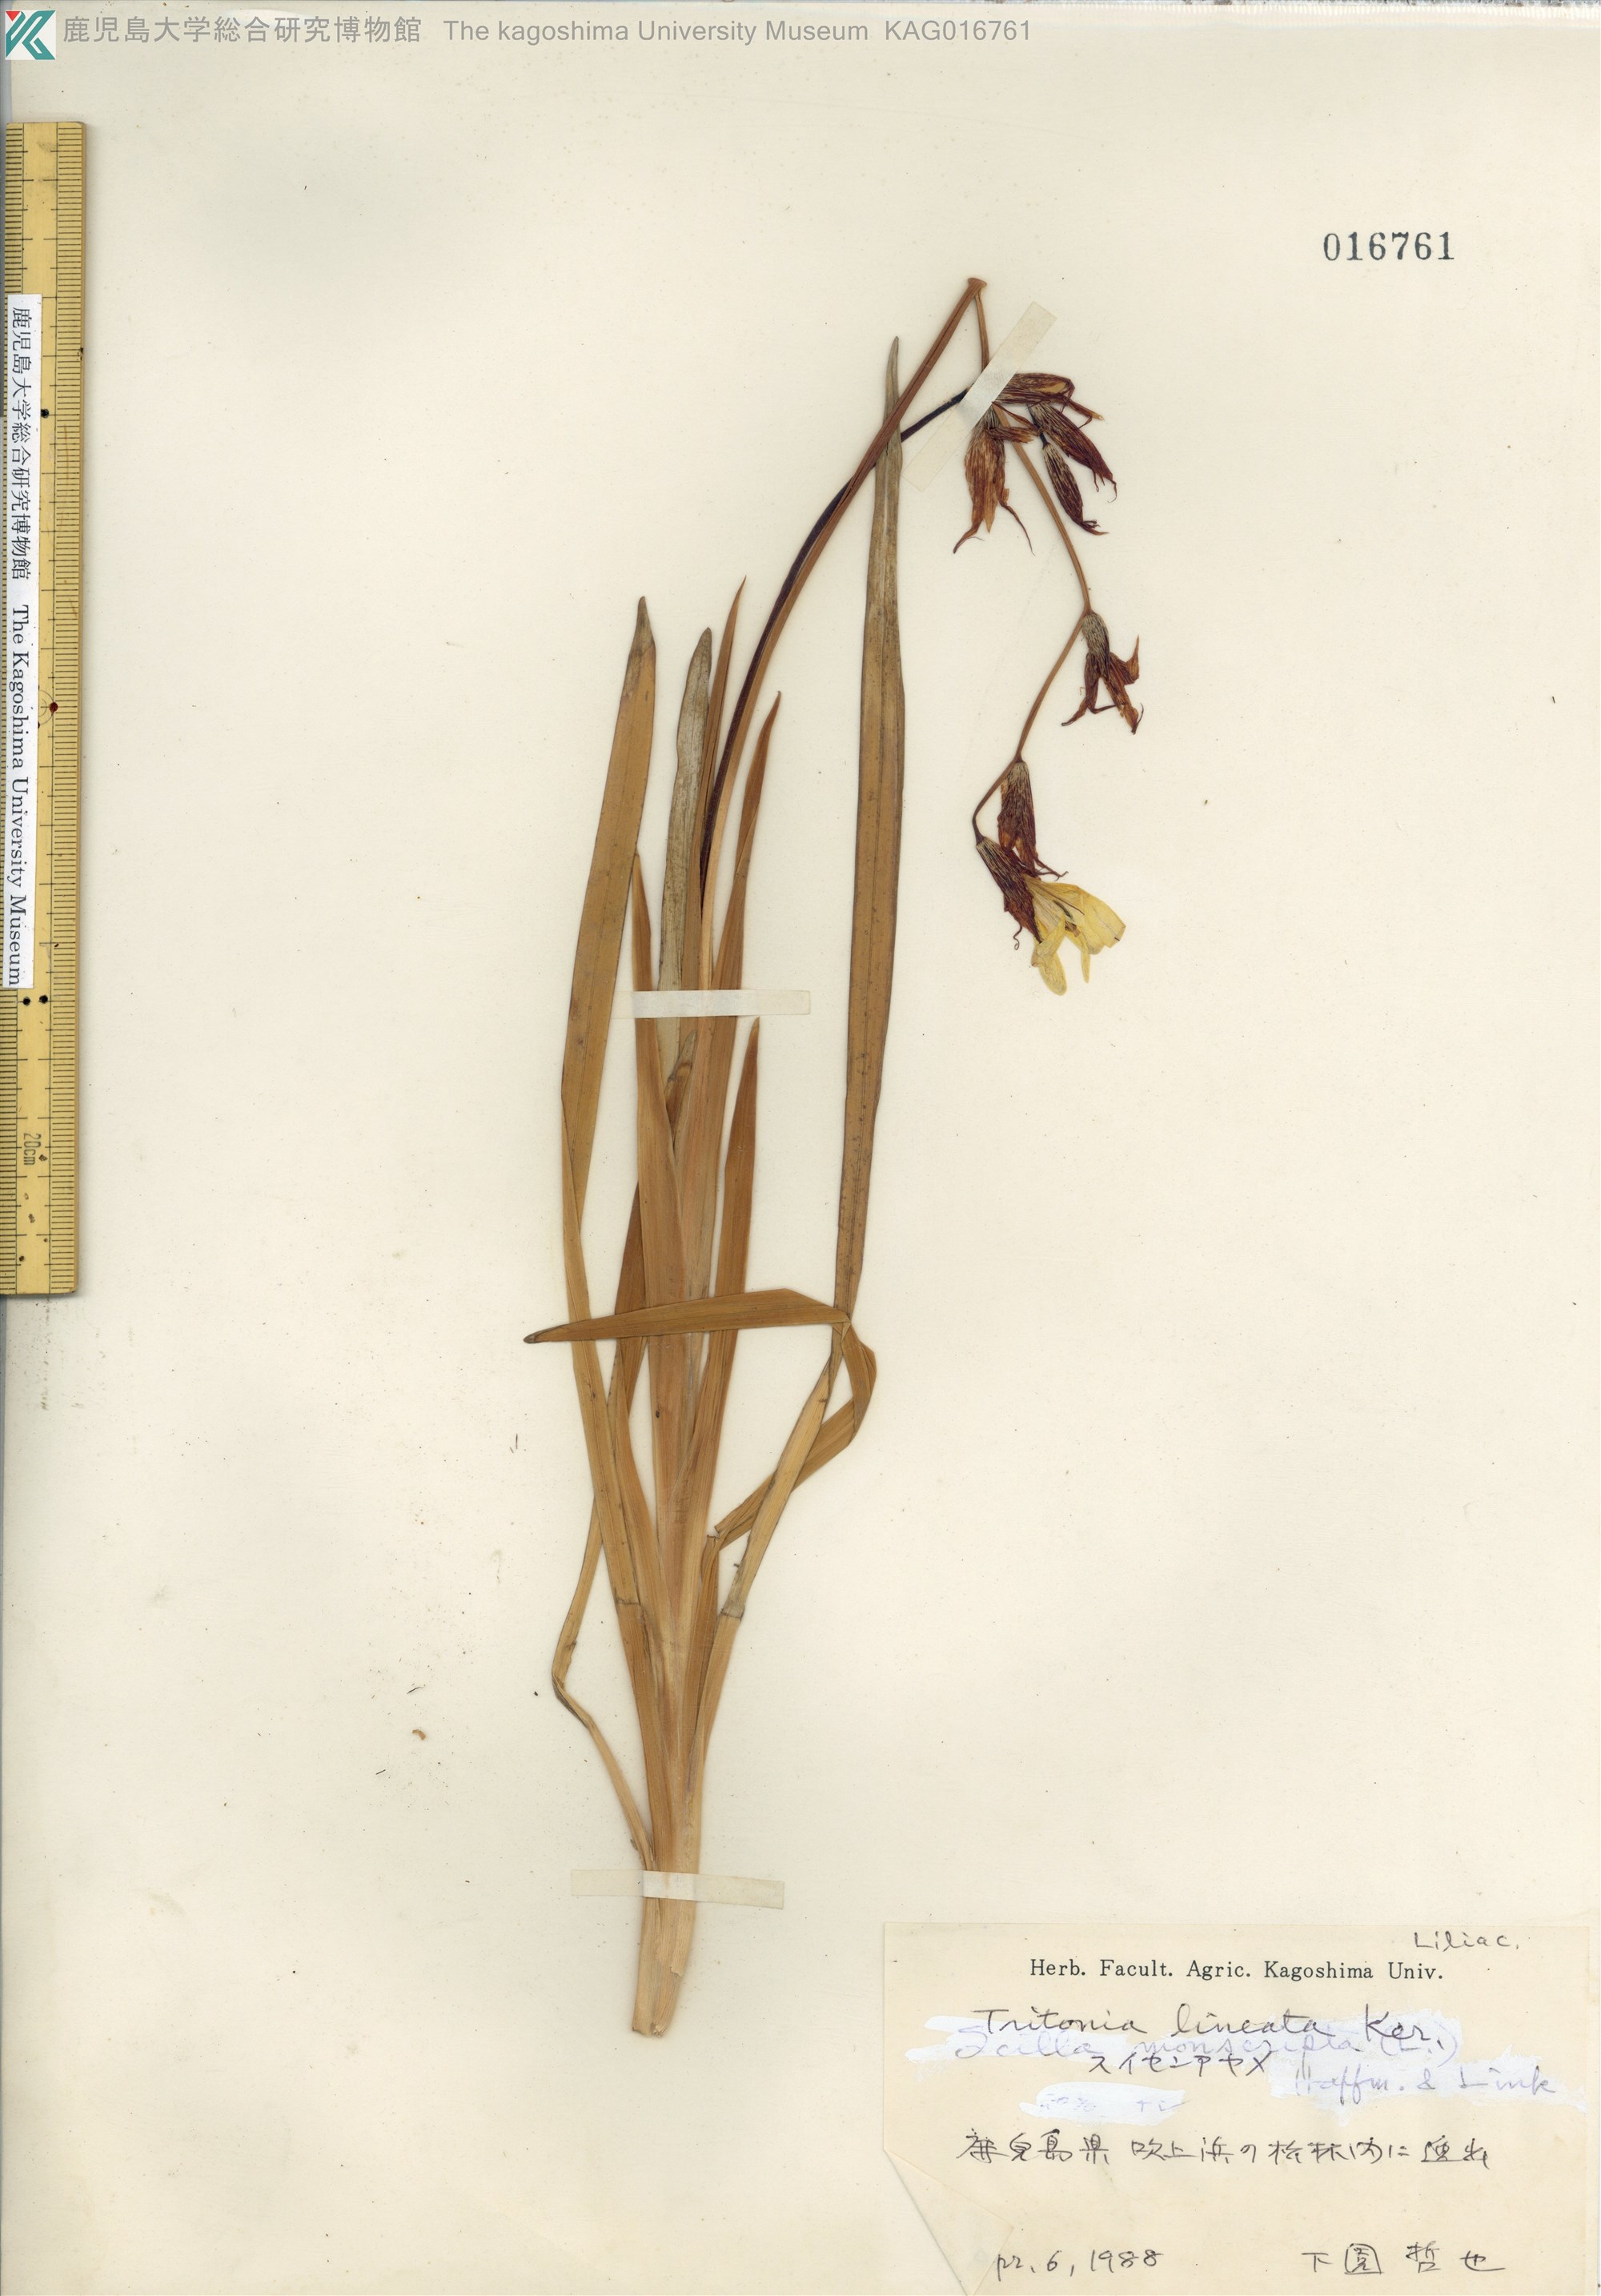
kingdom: Plantae
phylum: Tracheophyta
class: Liliopsida
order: Asparagales
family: Iridaceae
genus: Tritonia
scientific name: Tritonia gladiolaris
